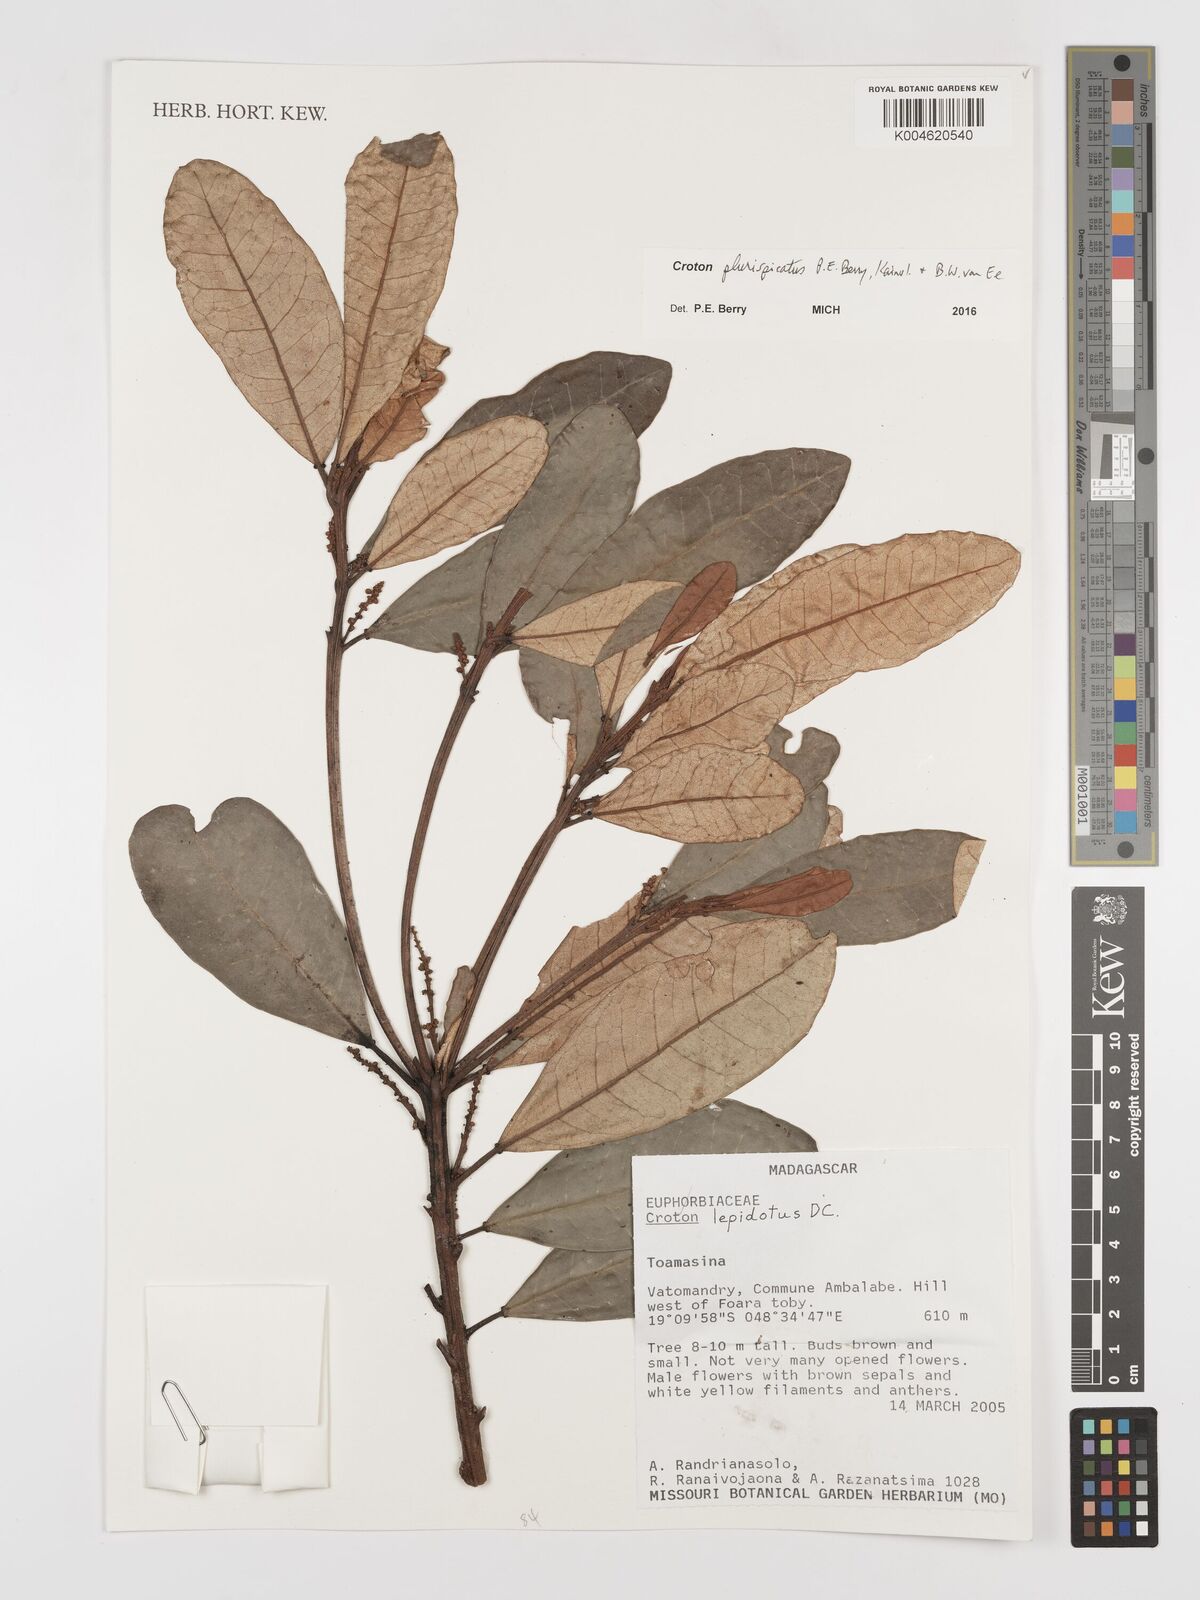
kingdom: Plantae
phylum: Tracheophyta
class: Magnoliopsida
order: Malpighiales
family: Euphorbiaceae
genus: Croton
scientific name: Croton plurispicatus
